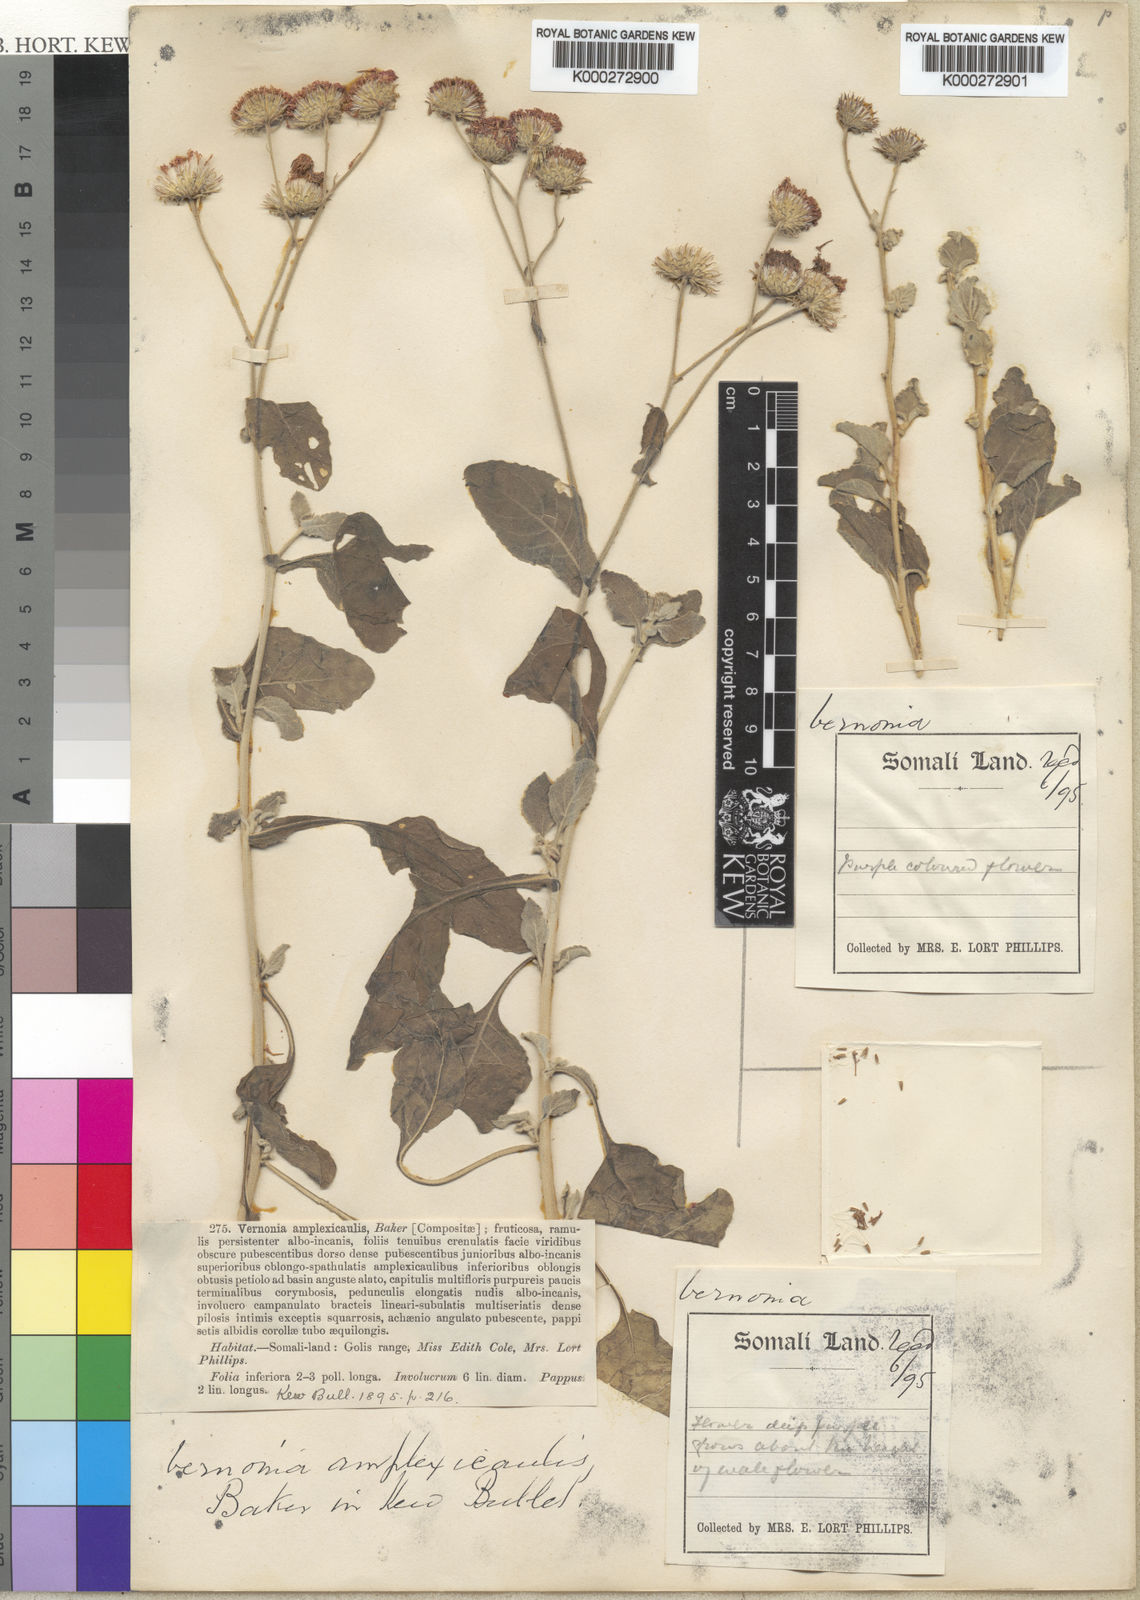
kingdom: Plantae
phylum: Tracheophyta
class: Magnoliopsida
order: Asterales
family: Asteraceae
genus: Vernoniastrum
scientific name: Vernoniastrum uncinatum
